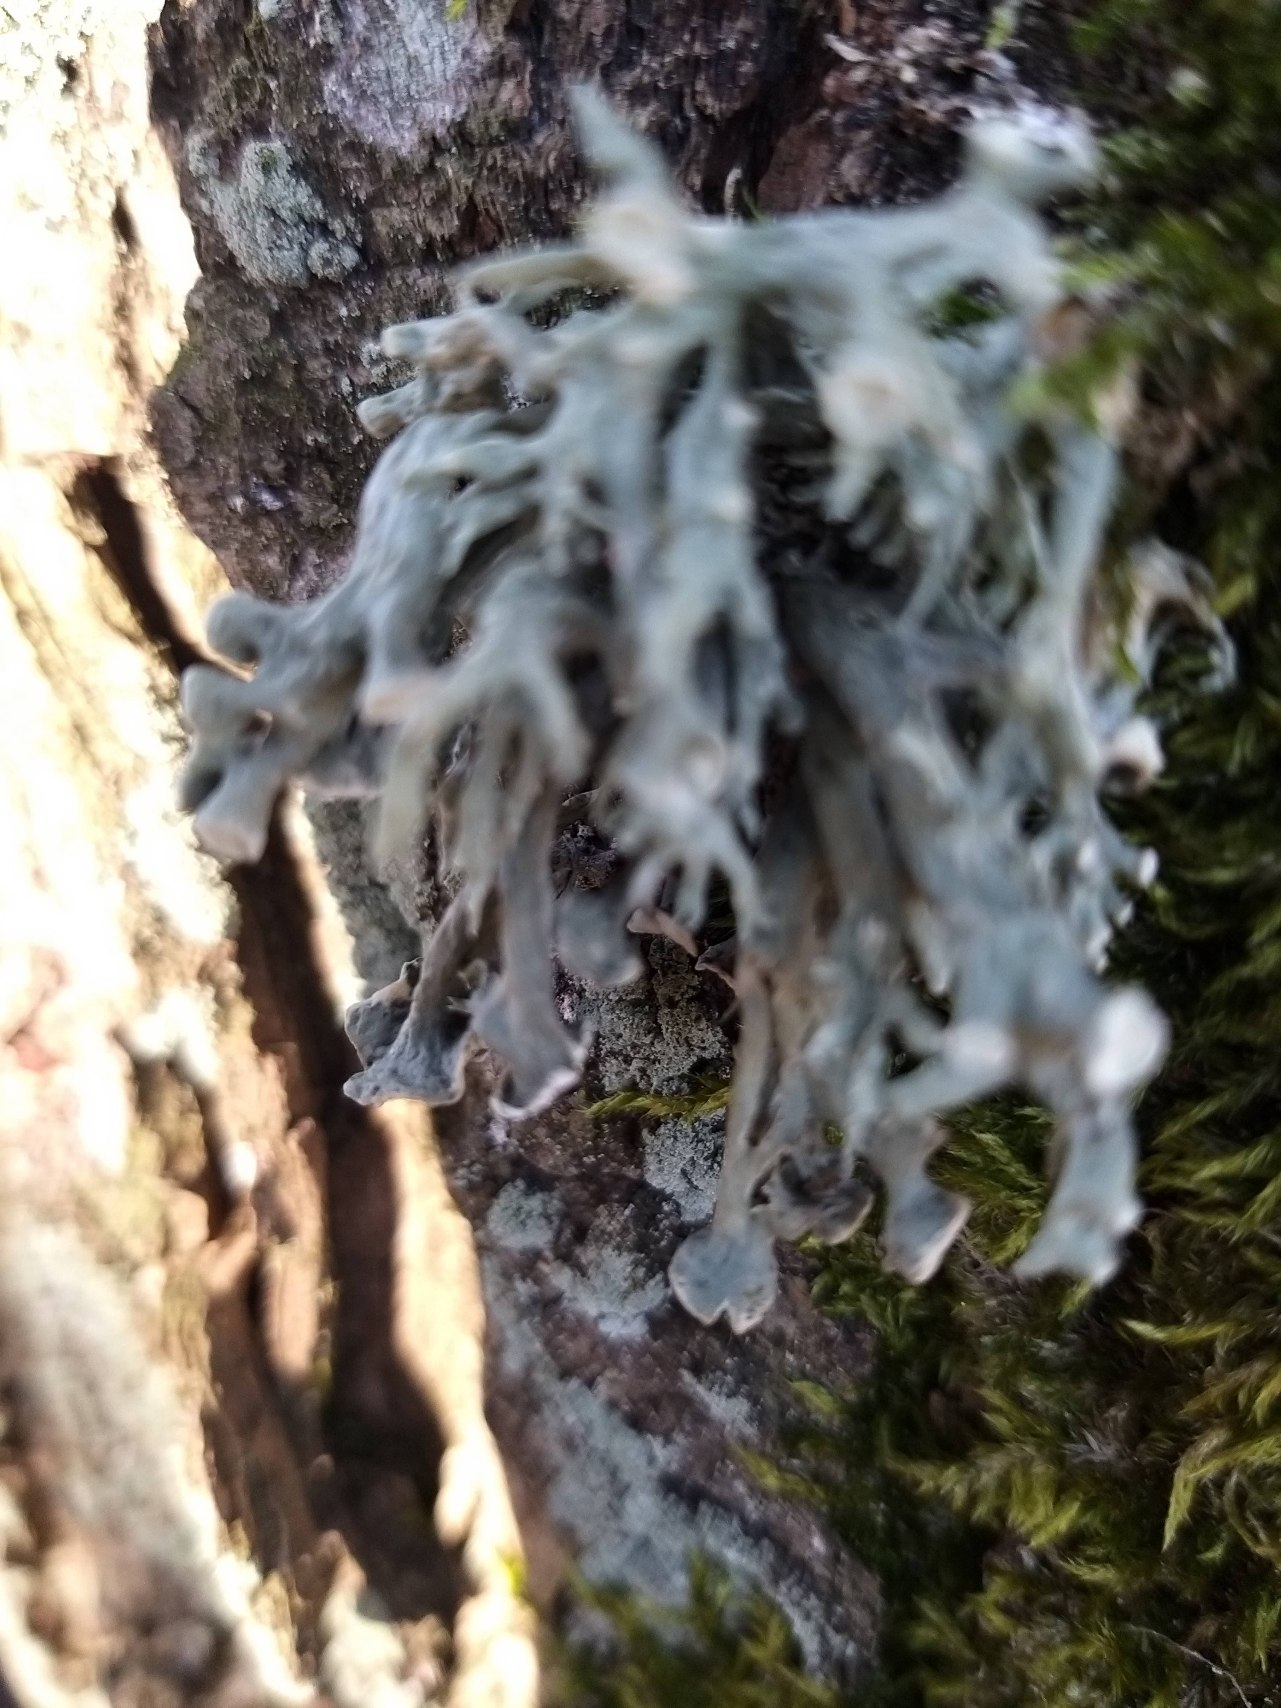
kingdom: Fungi
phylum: Ascomycota
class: Lecanoromycetes
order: Lecanorales
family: Ramalinaceae
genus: Ramalina
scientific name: Ramalina fastigiata
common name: Tue-grenlav
